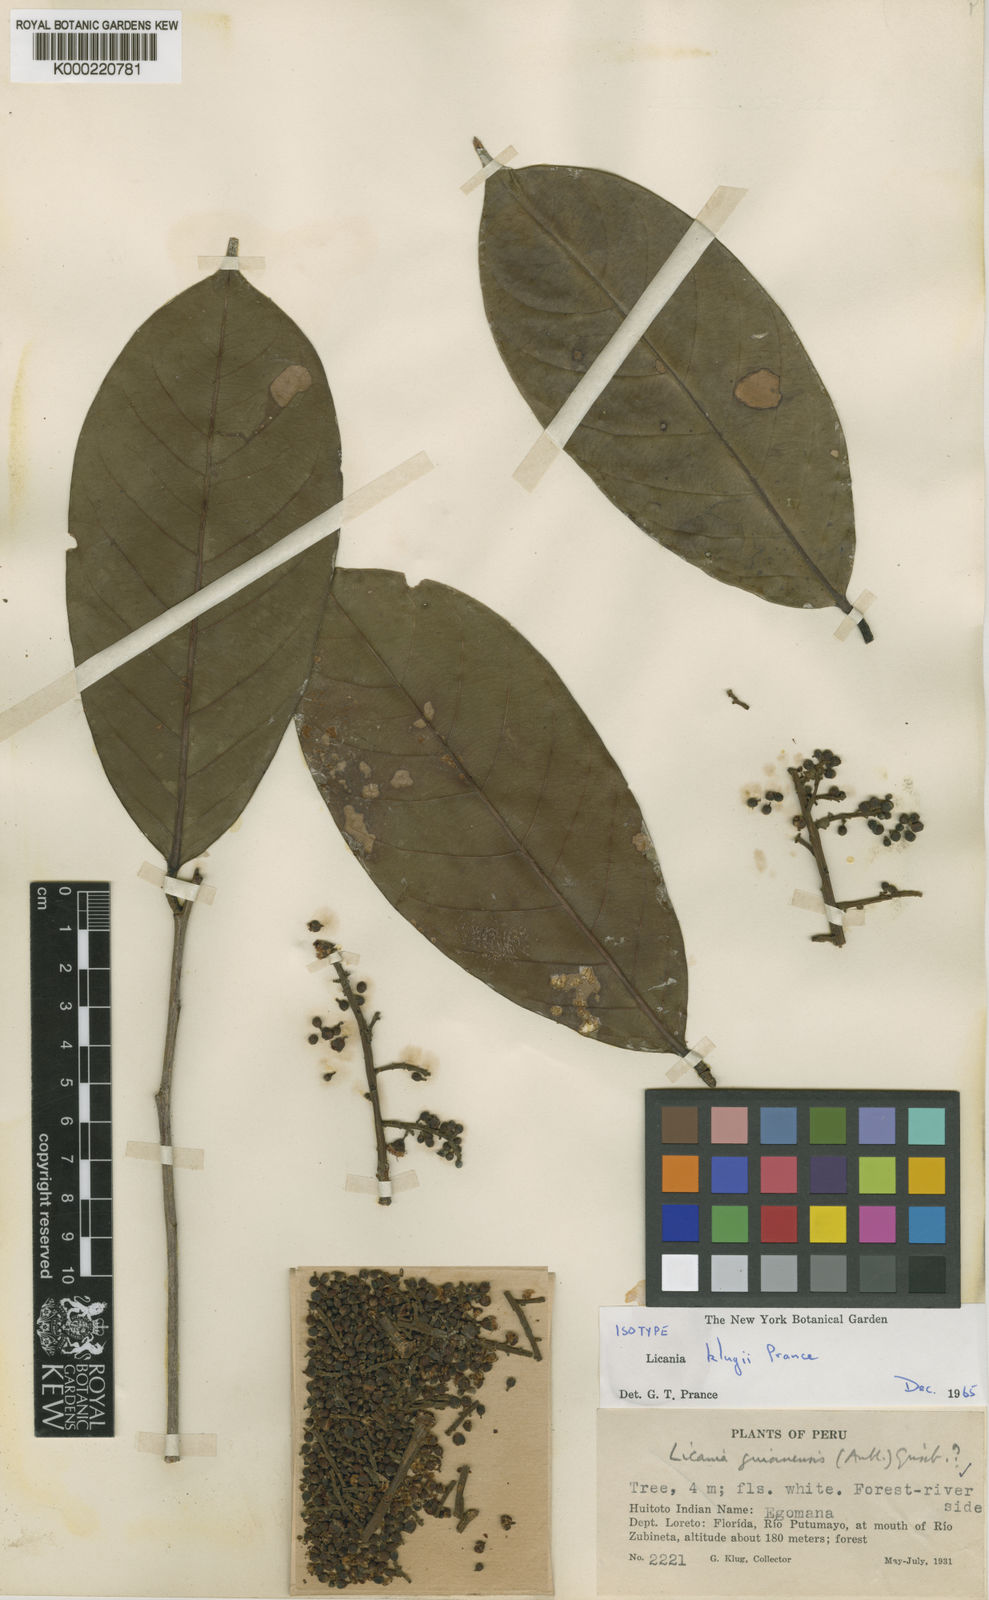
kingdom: Plantae
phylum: Tracheophyta
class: Magnoliopsida
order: Malpighiales
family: Chrysobalanaceae
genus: Moquilea
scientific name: Moquilea klugii
